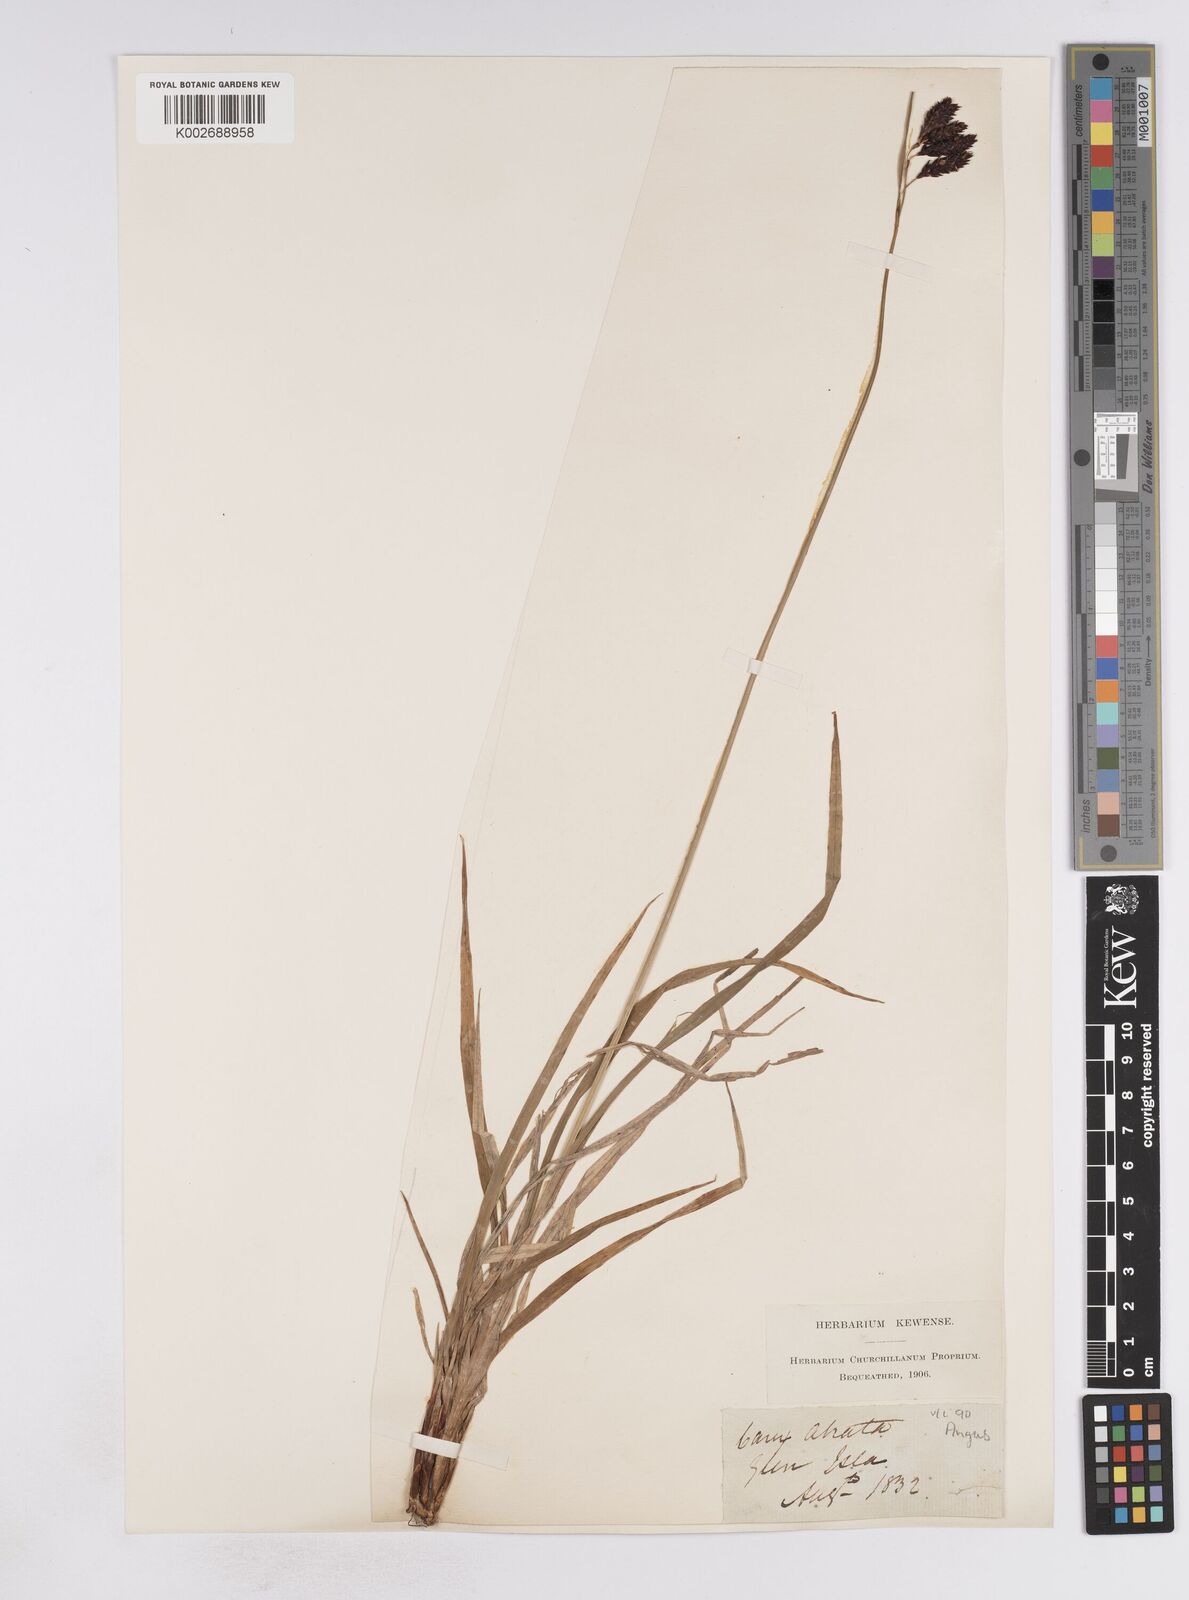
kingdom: Plantae
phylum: Tracheophyta
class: Liliopsida
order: Poales
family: Cyperaceae
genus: Carex
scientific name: Carex atrata
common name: Black alpine sedge
